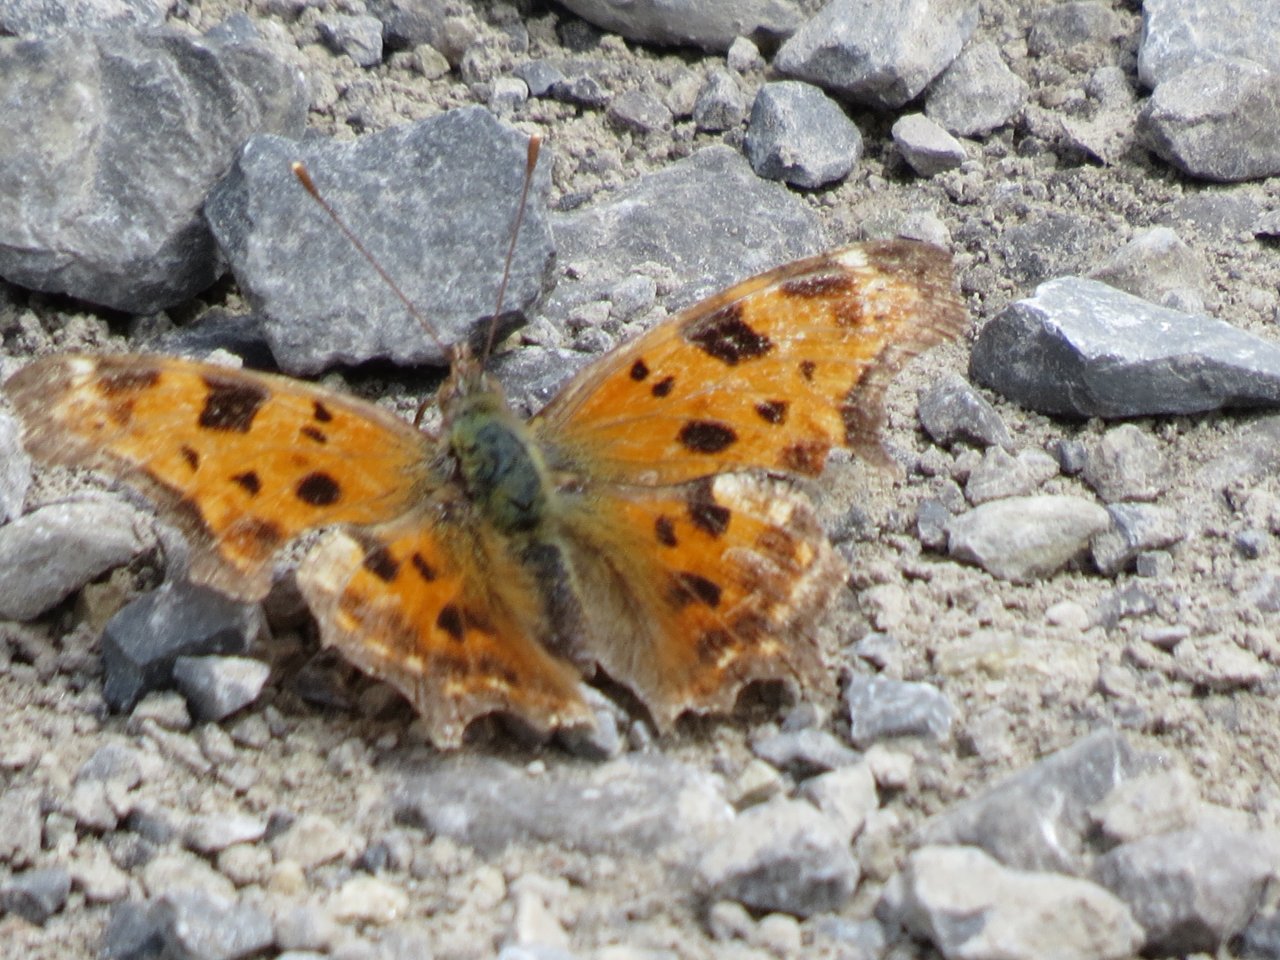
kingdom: Animalia
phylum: Arthropoda
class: Insecta
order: Lepidoptera
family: Nymphalidae
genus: Polygonia
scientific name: Polygonia comma
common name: Eastern Comma
